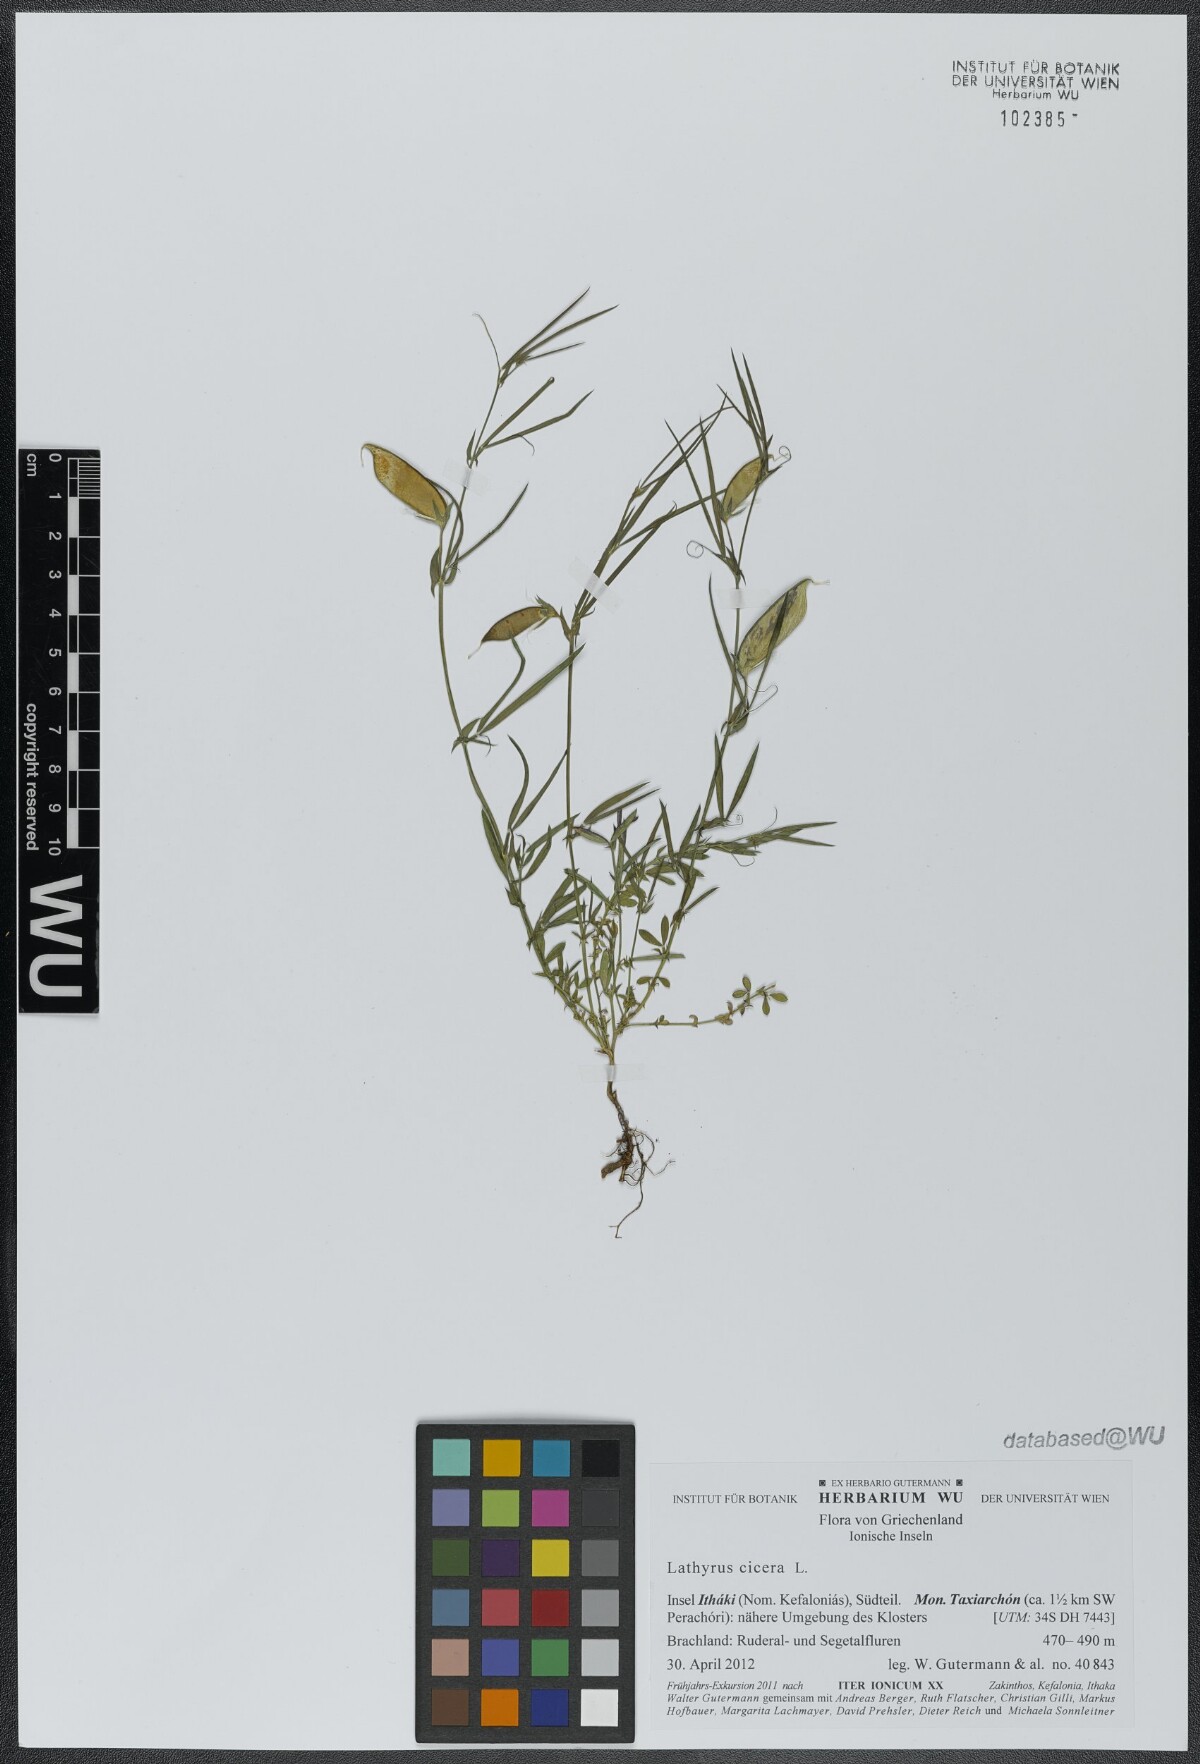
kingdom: Plantae
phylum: Tracheophyta
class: Magnoliopsida
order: Fabales
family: Fabaceae
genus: Lathyrus
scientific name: Lathyrus cicera
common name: Red vetchling
